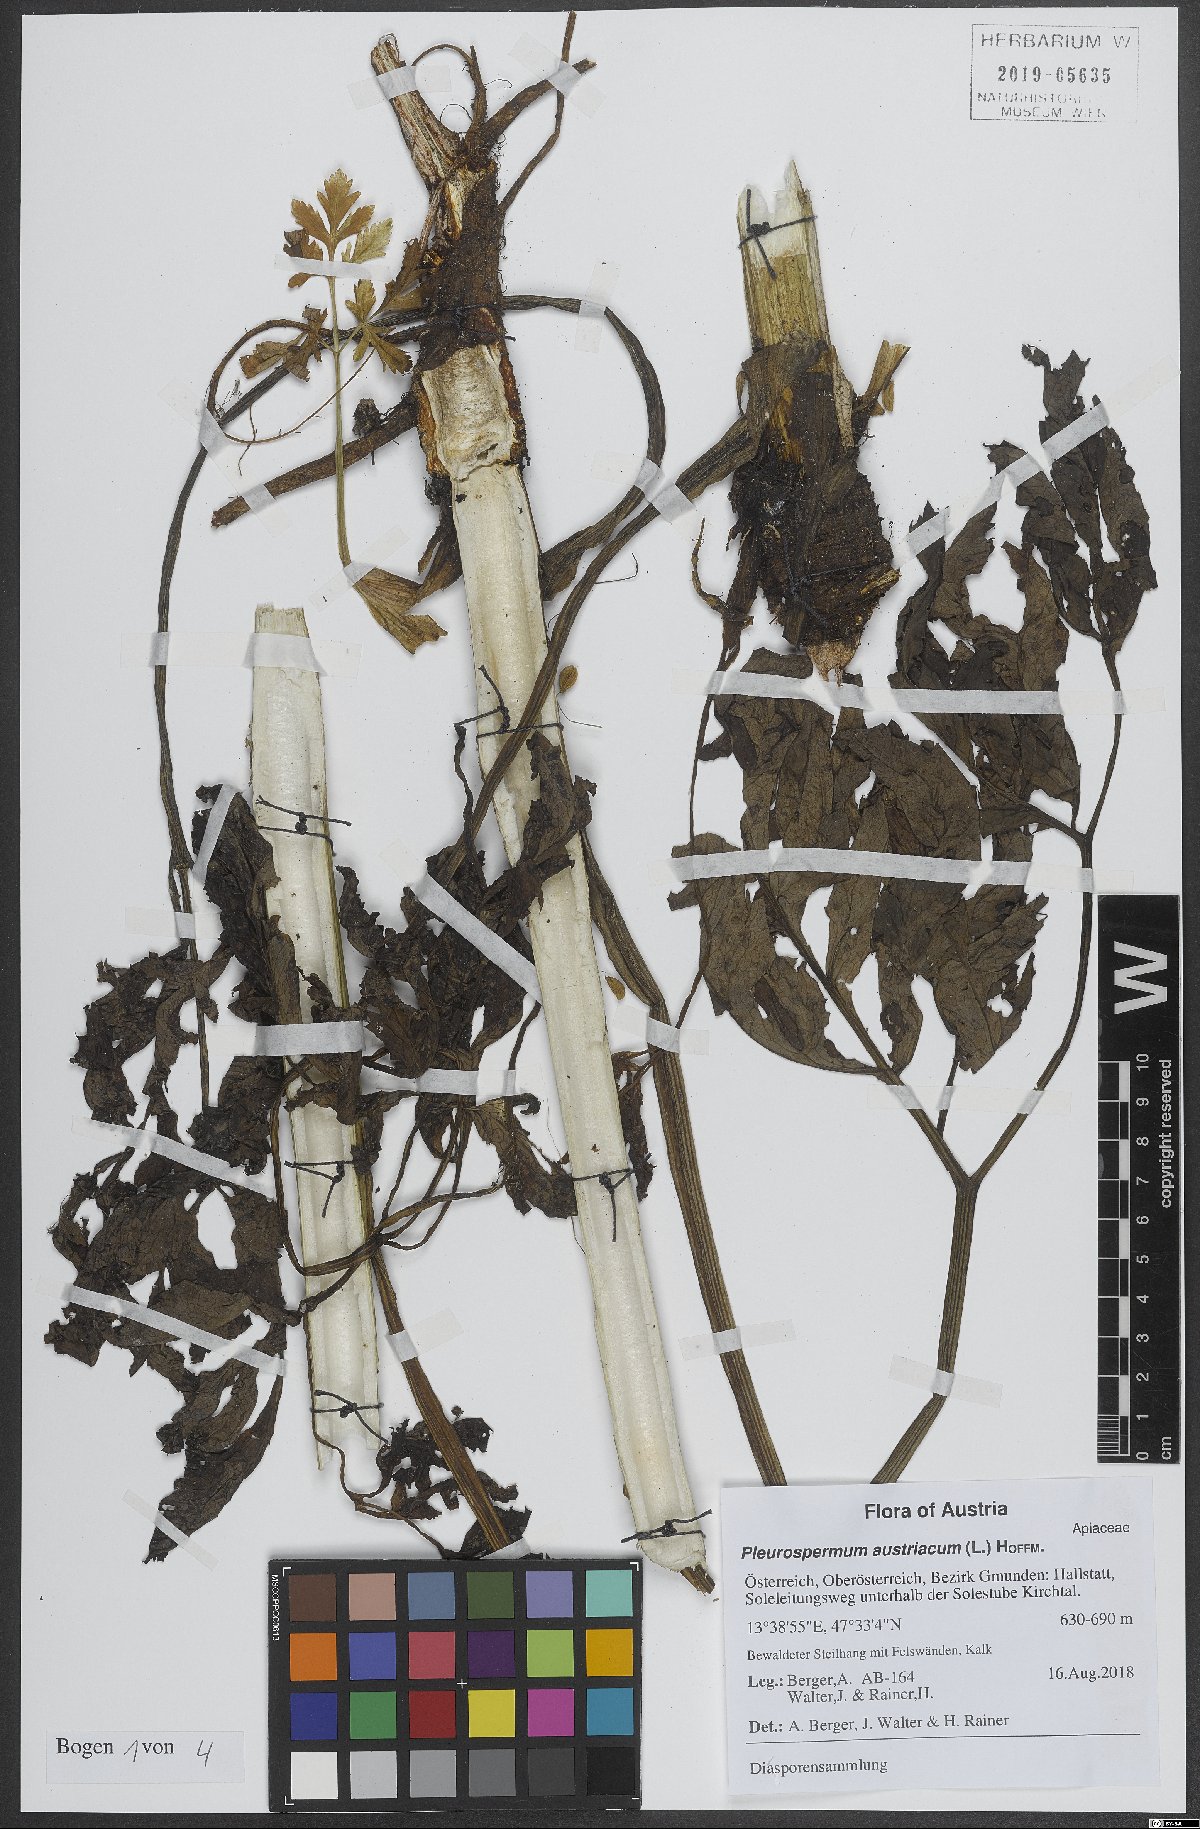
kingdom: Plantae
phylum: Tracheophyta
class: Magnoliopsida
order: Apiales
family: Apiaceae
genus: Pleurospermum
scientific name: Pleurospermum austriacum
